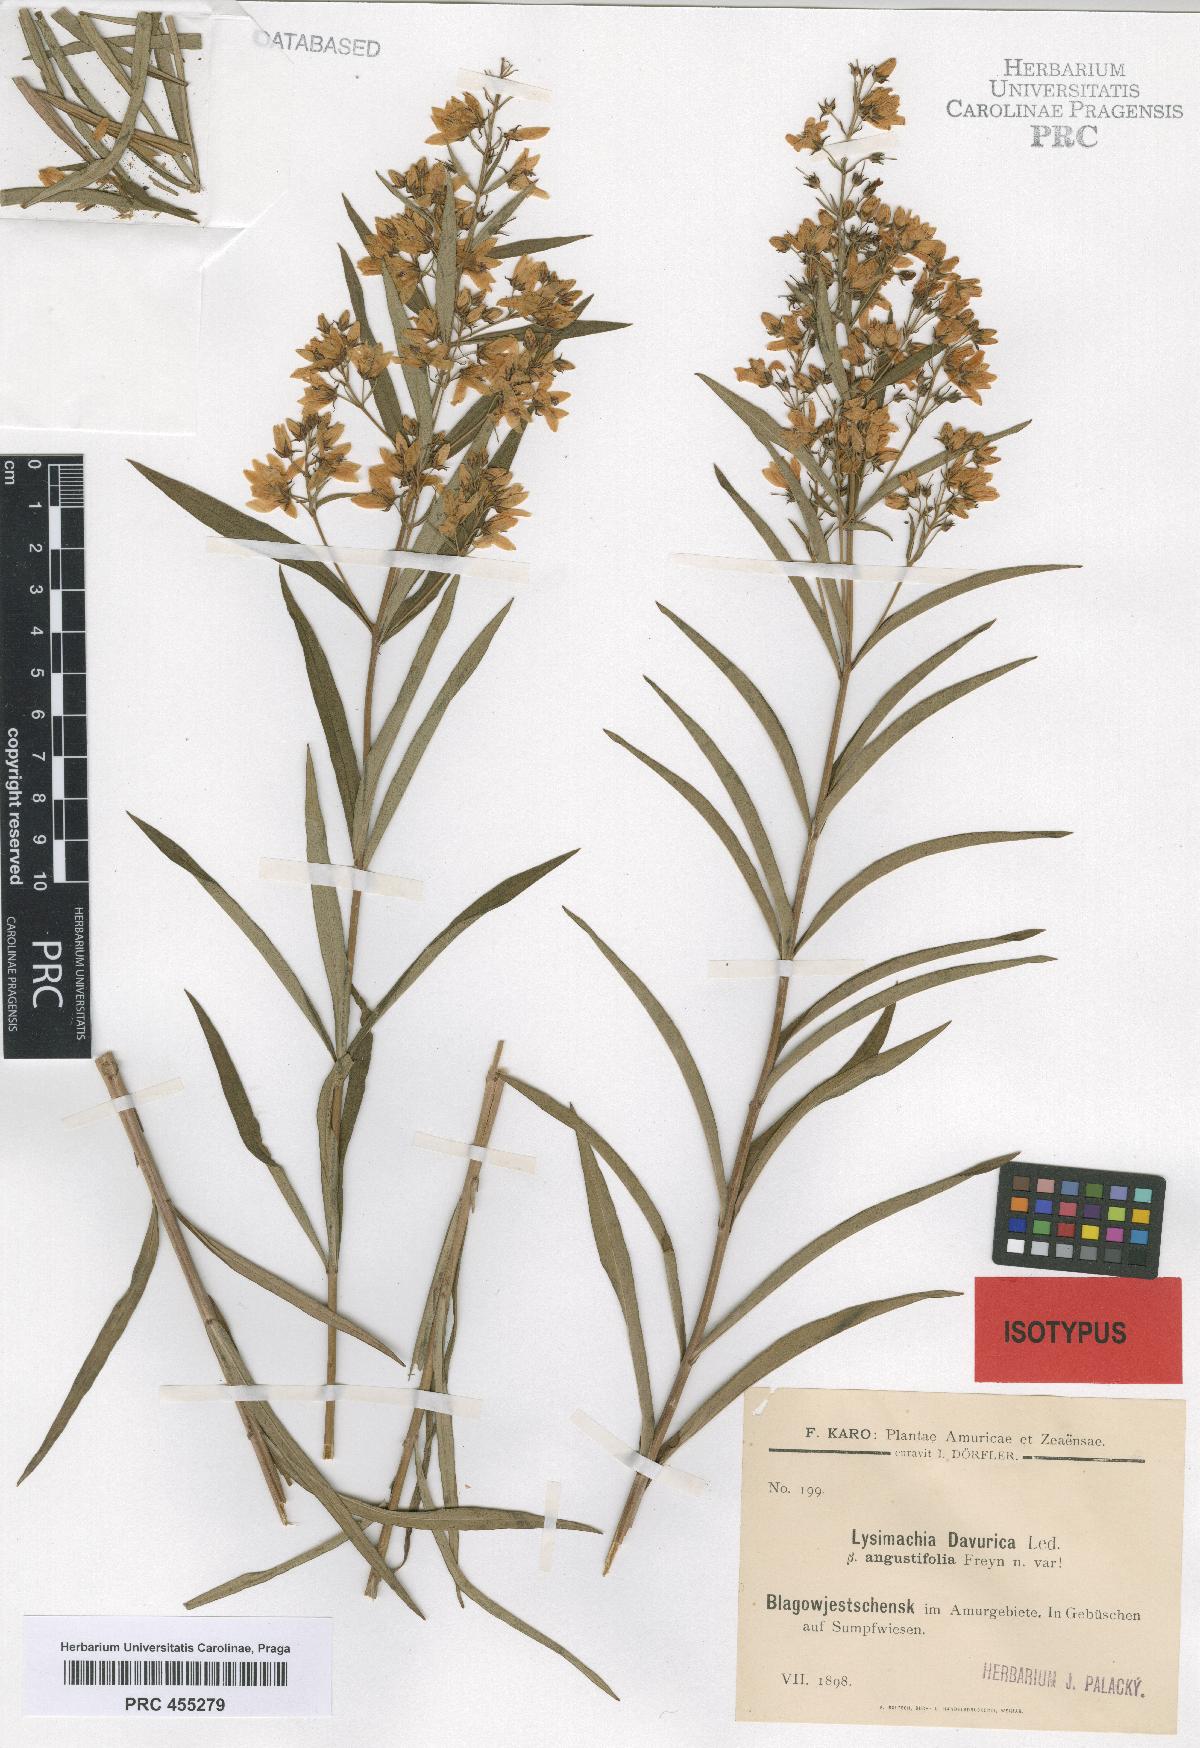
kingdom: Plantae
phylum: Tracheophyta
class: Magnoliopsida
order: Ericales
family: Primulaceae
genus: Lysimachia
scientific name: Lysimachia davurica
